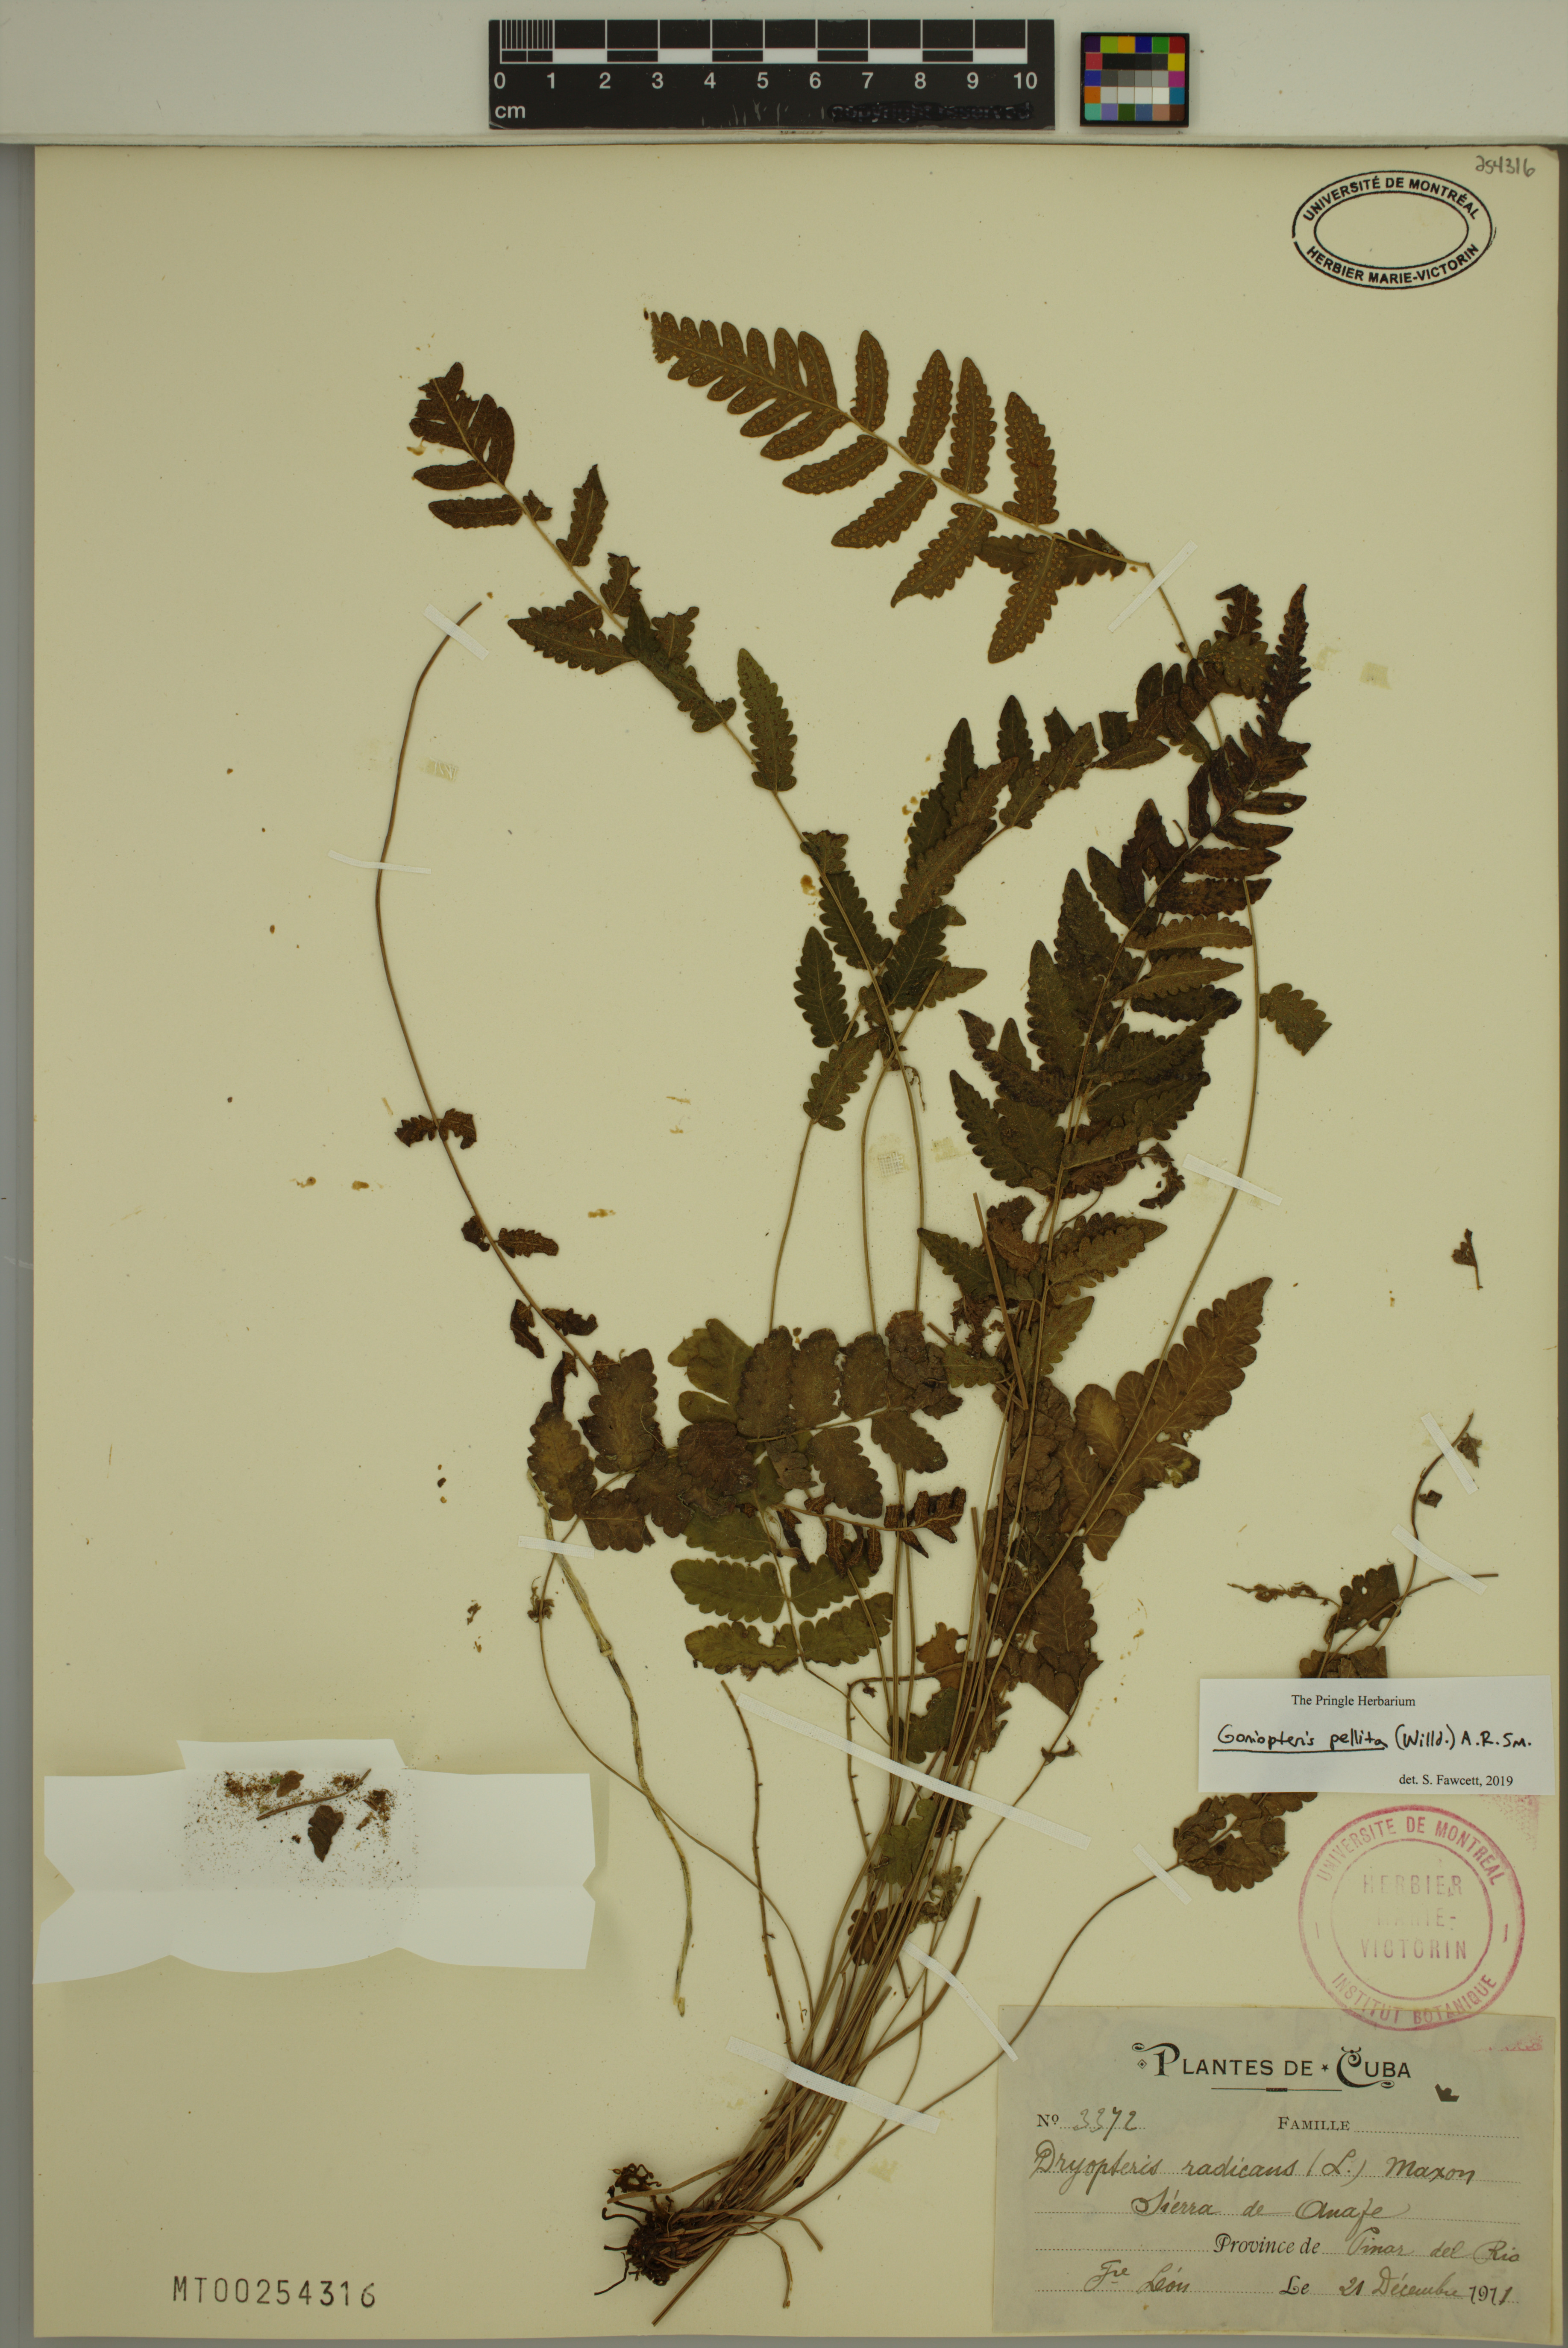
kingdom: Plantae
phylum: Tracheophyta
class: Polypodiopsida
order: Polypodiales
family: Thelypteridaceae
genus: Goniopteris
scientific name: Goniopteris pellita
